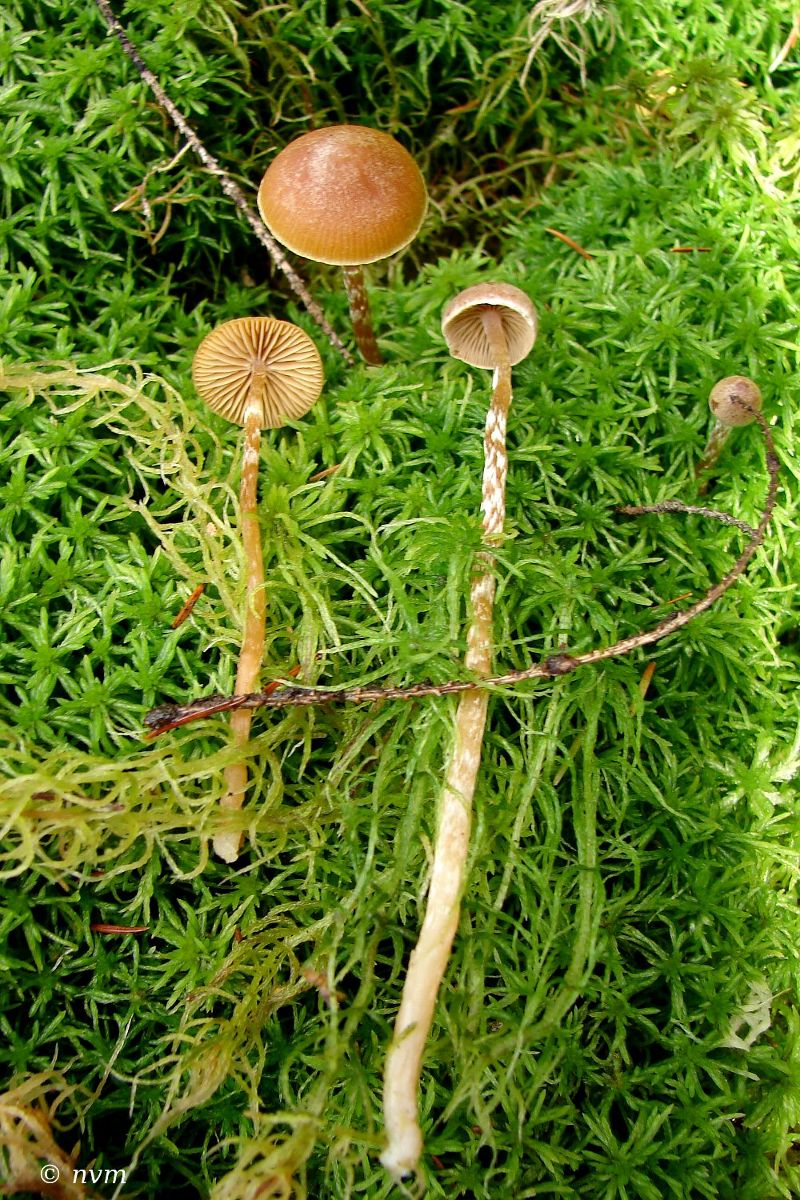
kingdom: Fungi
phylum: Basidiomycota
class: Agaricomycetes
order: Agaricales
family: Hymenogastraceae
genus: Galerina
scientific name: Galerina paludosa
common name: mose-hjelmhat
